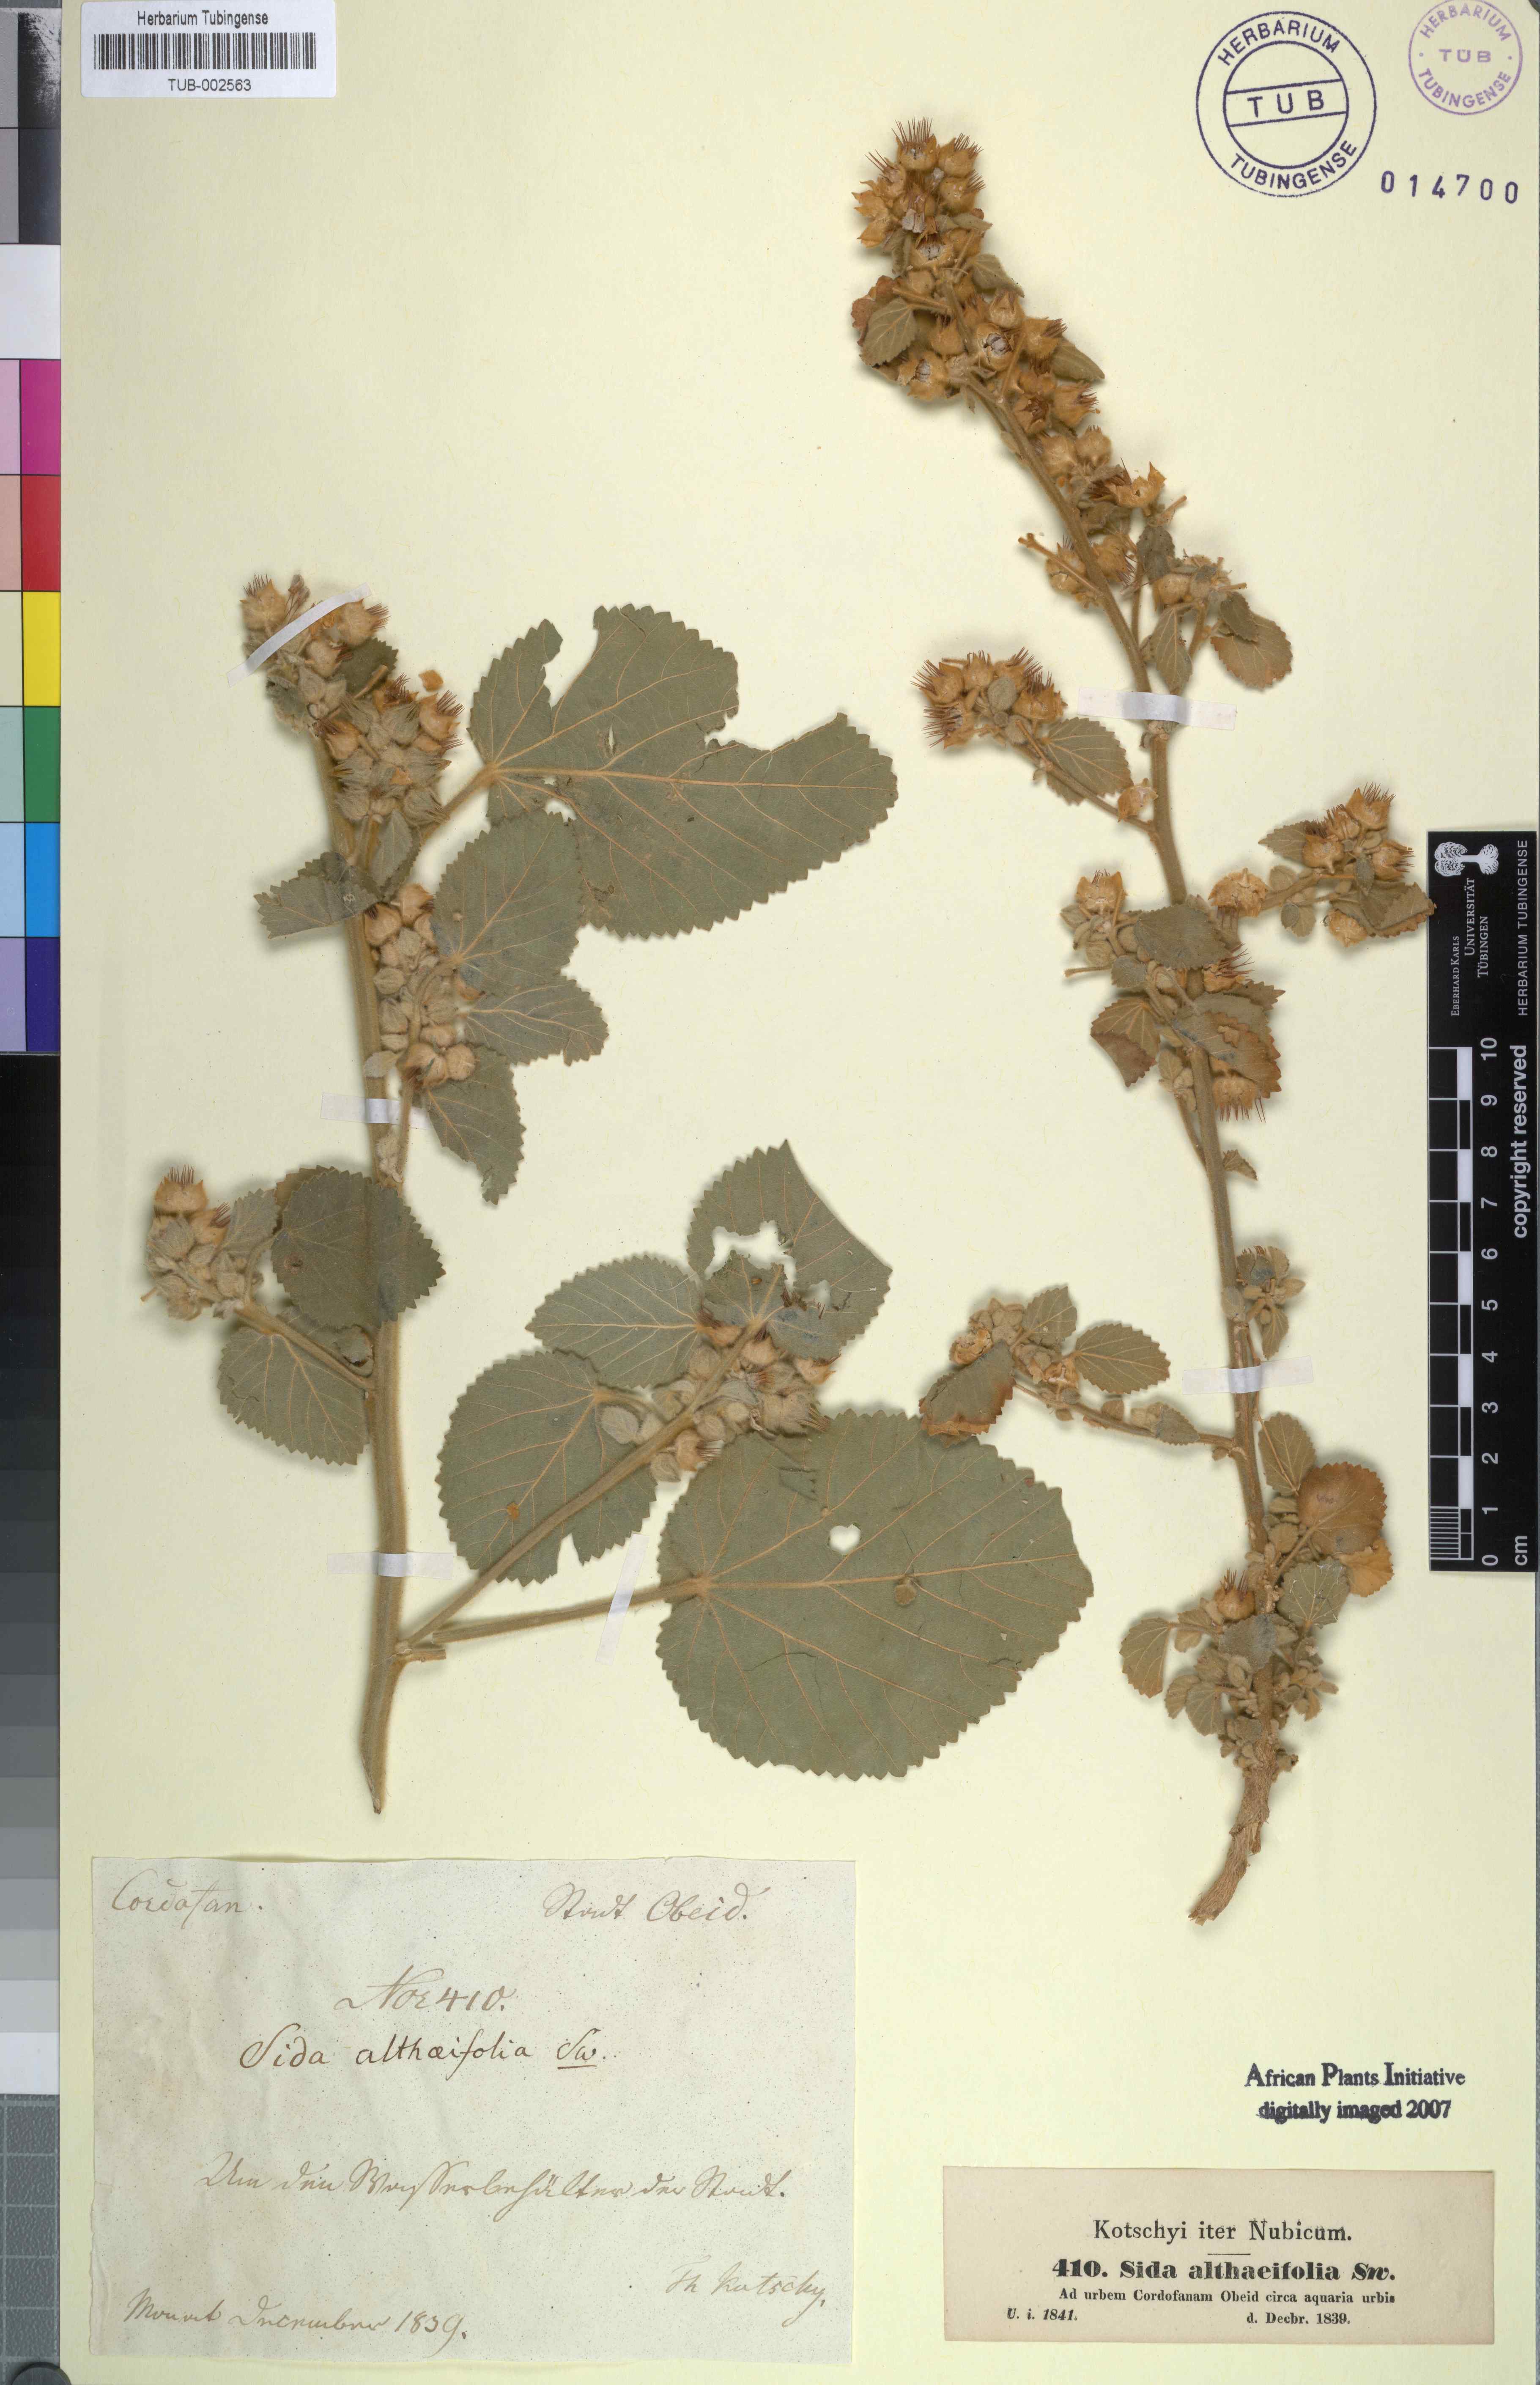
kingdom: Plantae
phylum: Tracheophyta
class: Magnoliopsida
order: Malvales
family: Malvaceae
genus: Sida
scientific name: Sida cordifolia
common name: Ilima
